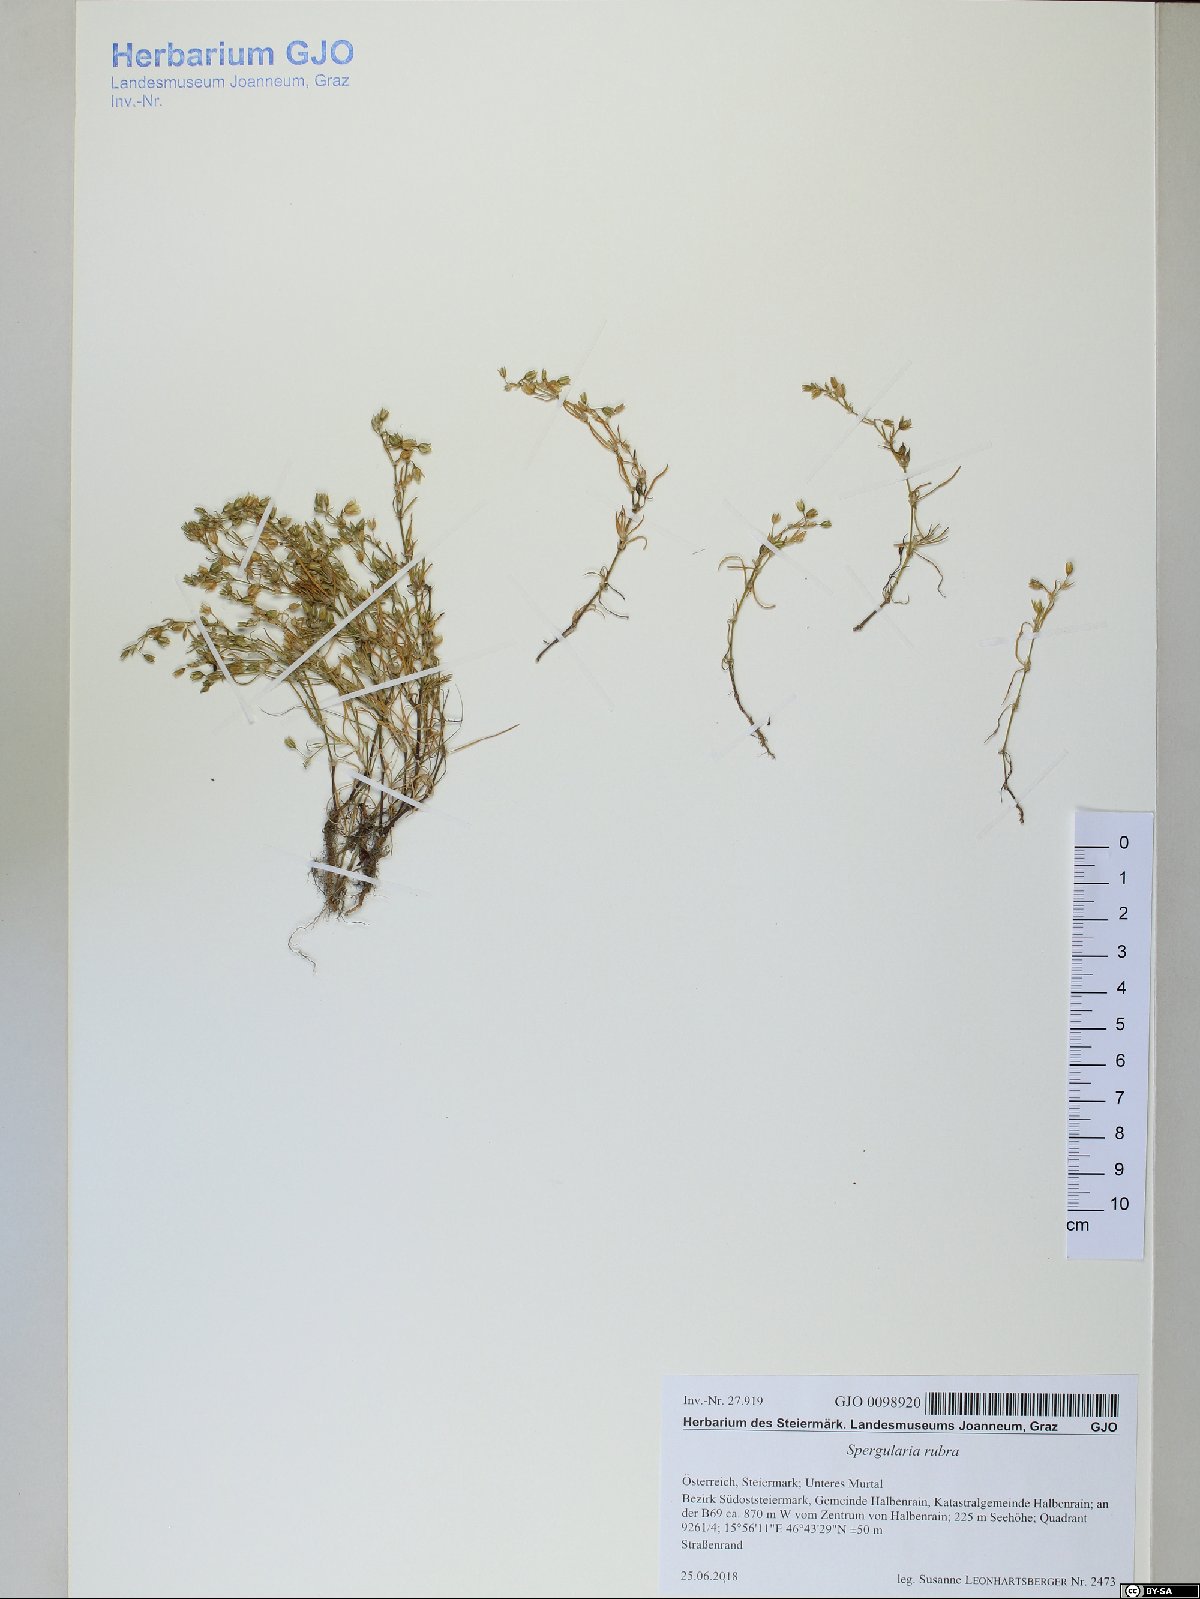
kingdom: Plantae
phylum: Tracheophyta
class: Magnoliopsida
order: Caryophyllales
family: Caryophyllaceae
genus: Spergularia
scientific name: Spergularia rubra
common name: Red sand-spurrey
